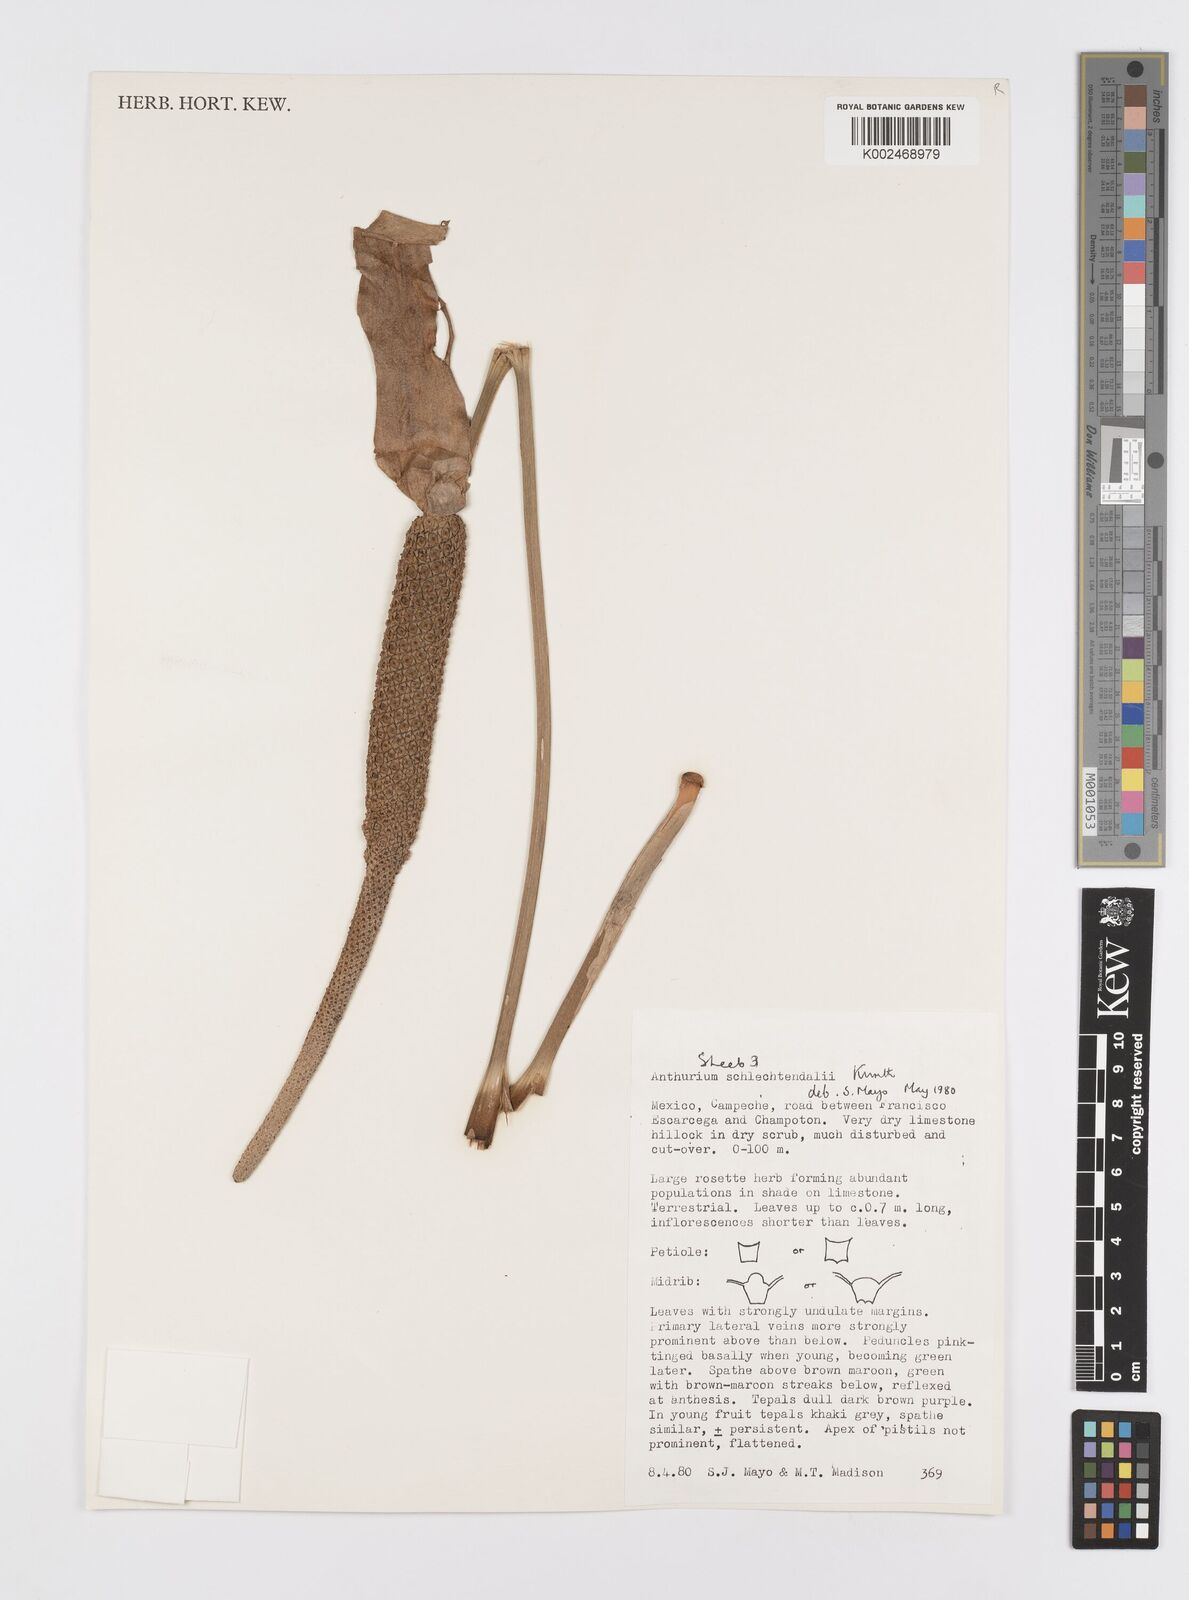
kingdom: Plantae
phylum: Tracheophyta
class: Liliopsida
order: Alismatales
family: Araceae
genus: Anthurium
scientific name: Anthurium schlechtendalii
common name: Laceleaf
